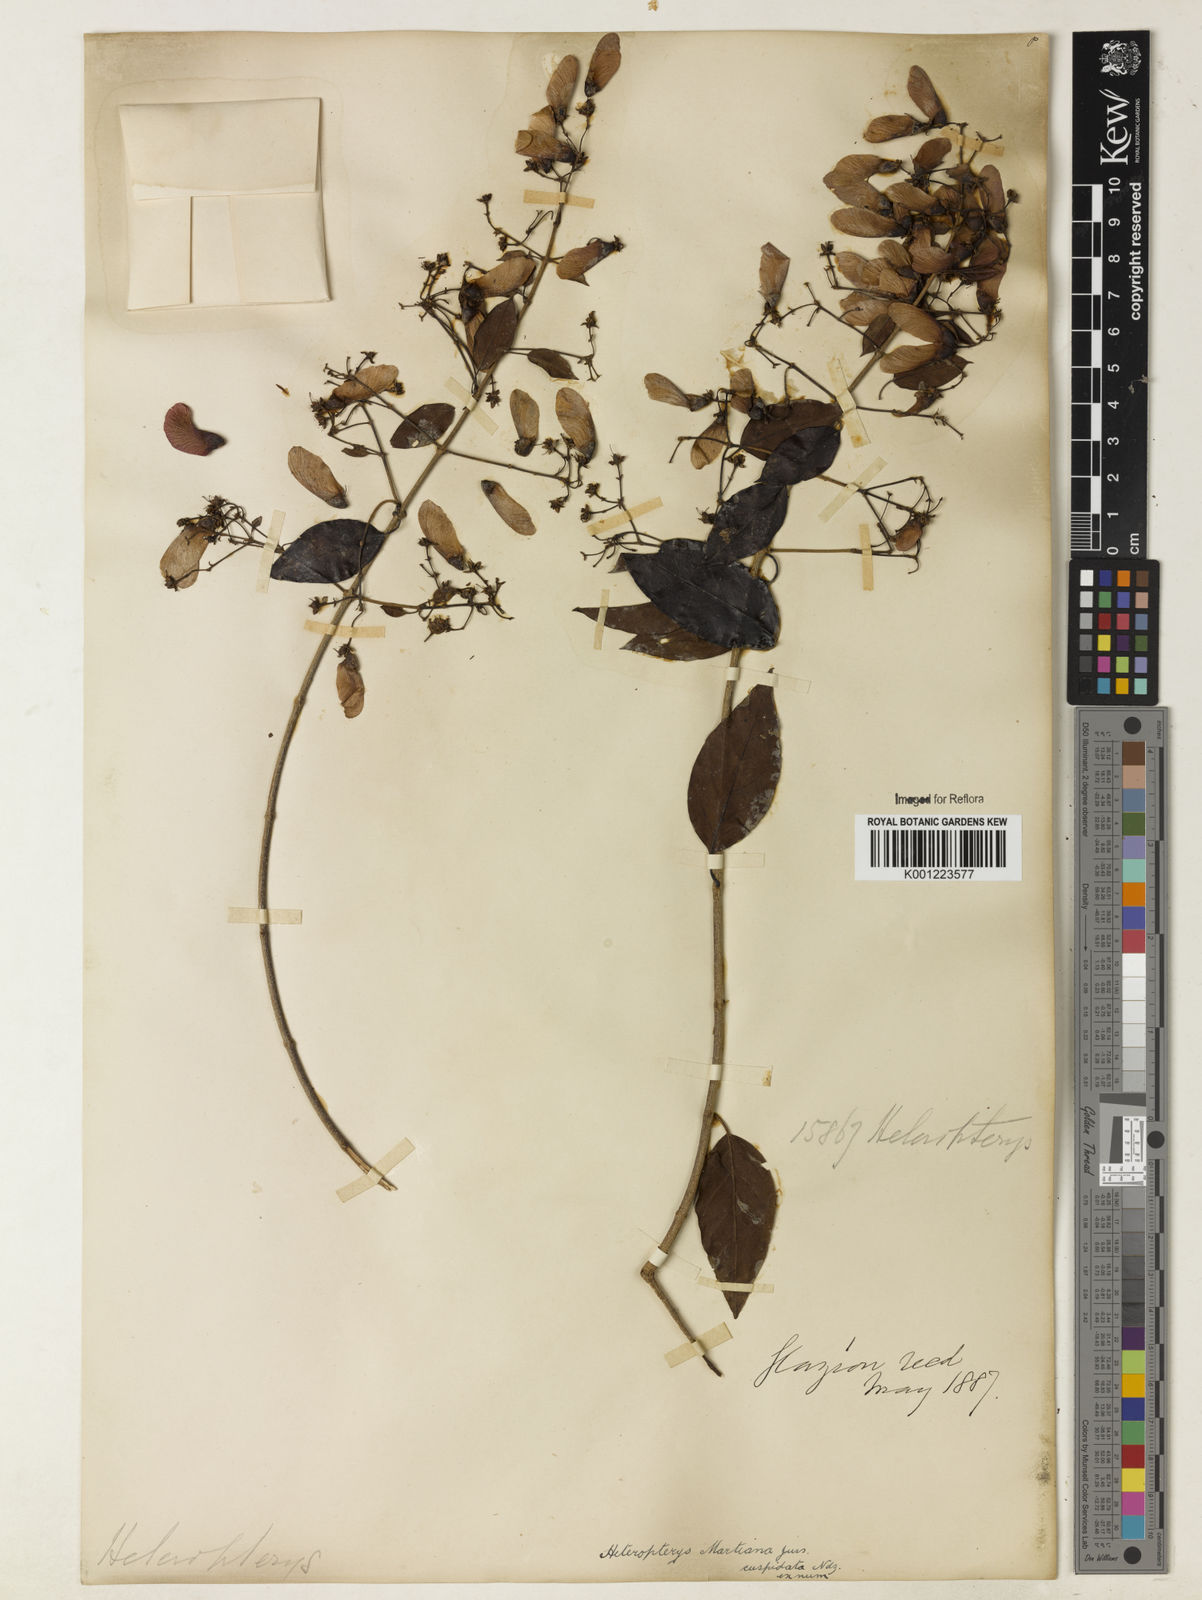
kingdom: Plantae
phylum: Tracheophyta
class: Magnoliopsida
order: Malpighiales
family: Malpighiaceae
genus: Heteropterys
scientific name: Heteropterys syringifolia
